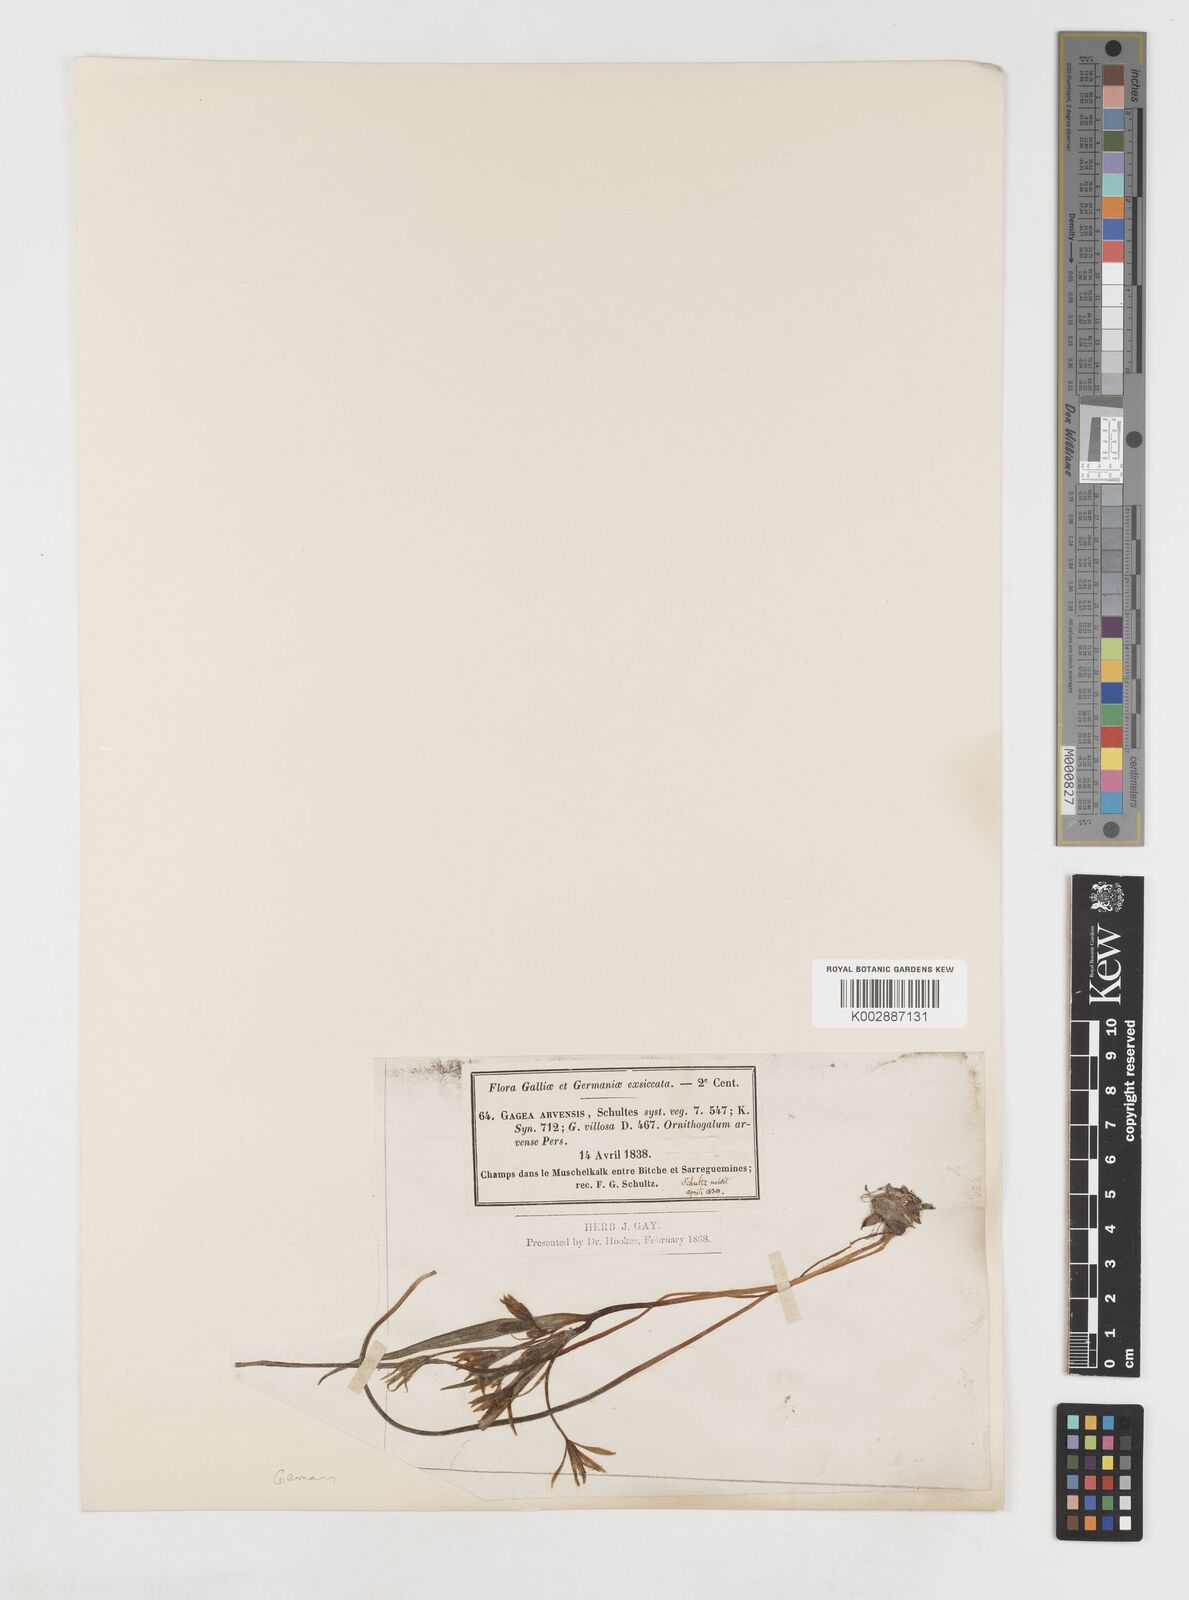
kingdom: Plantae
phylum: Tracheophyta
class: Liliopsida
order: Liliales
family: Liliaceae
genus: Gagea
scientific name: Gagea minima
